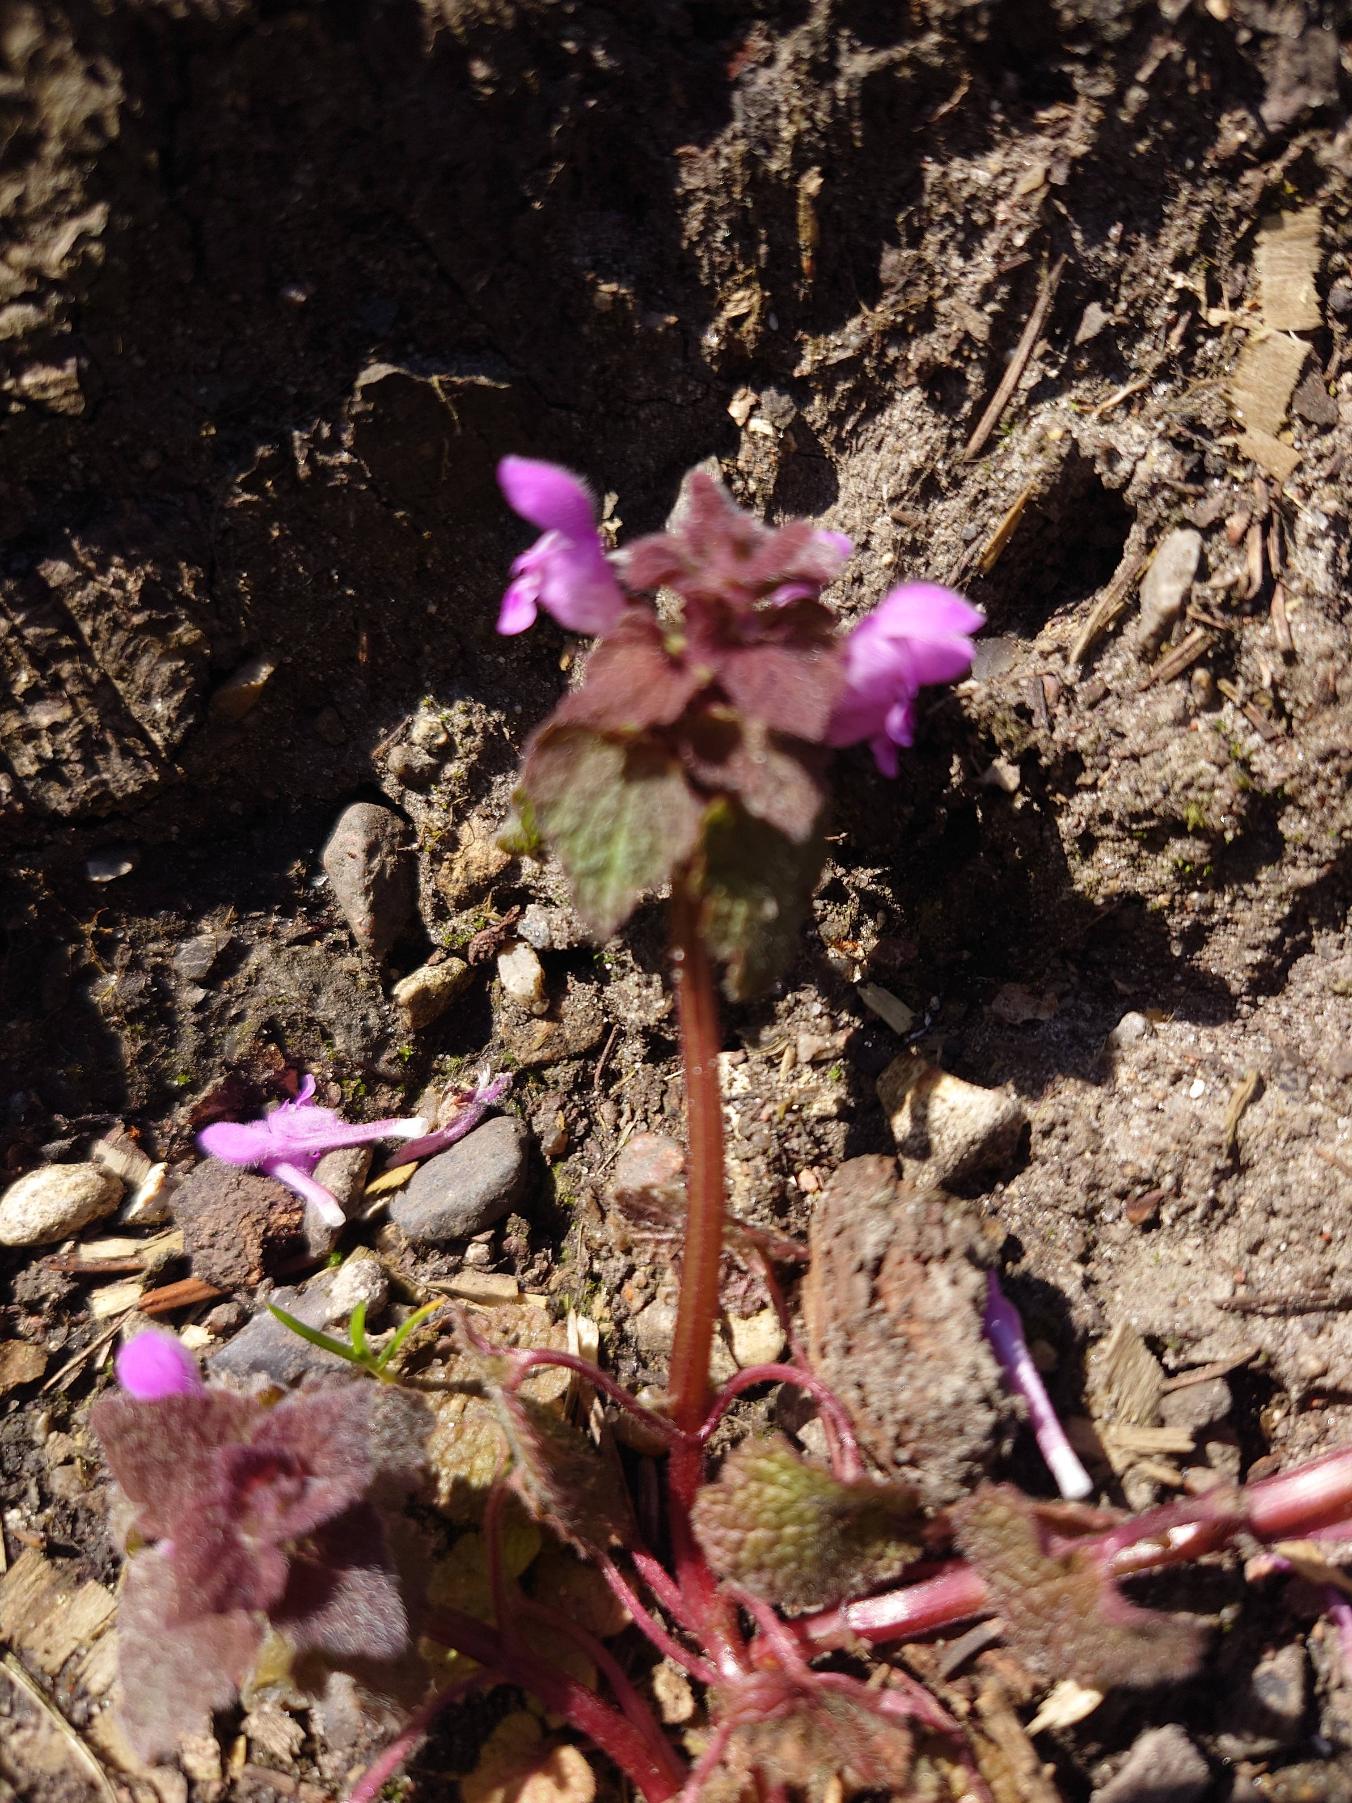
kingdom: Plantae
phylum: Tracheophyta
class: Magnoliopsida
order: Lamiales
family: Lamiaceae
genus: Lamium
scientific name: Lamium purpureum
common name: Rød tvetand
